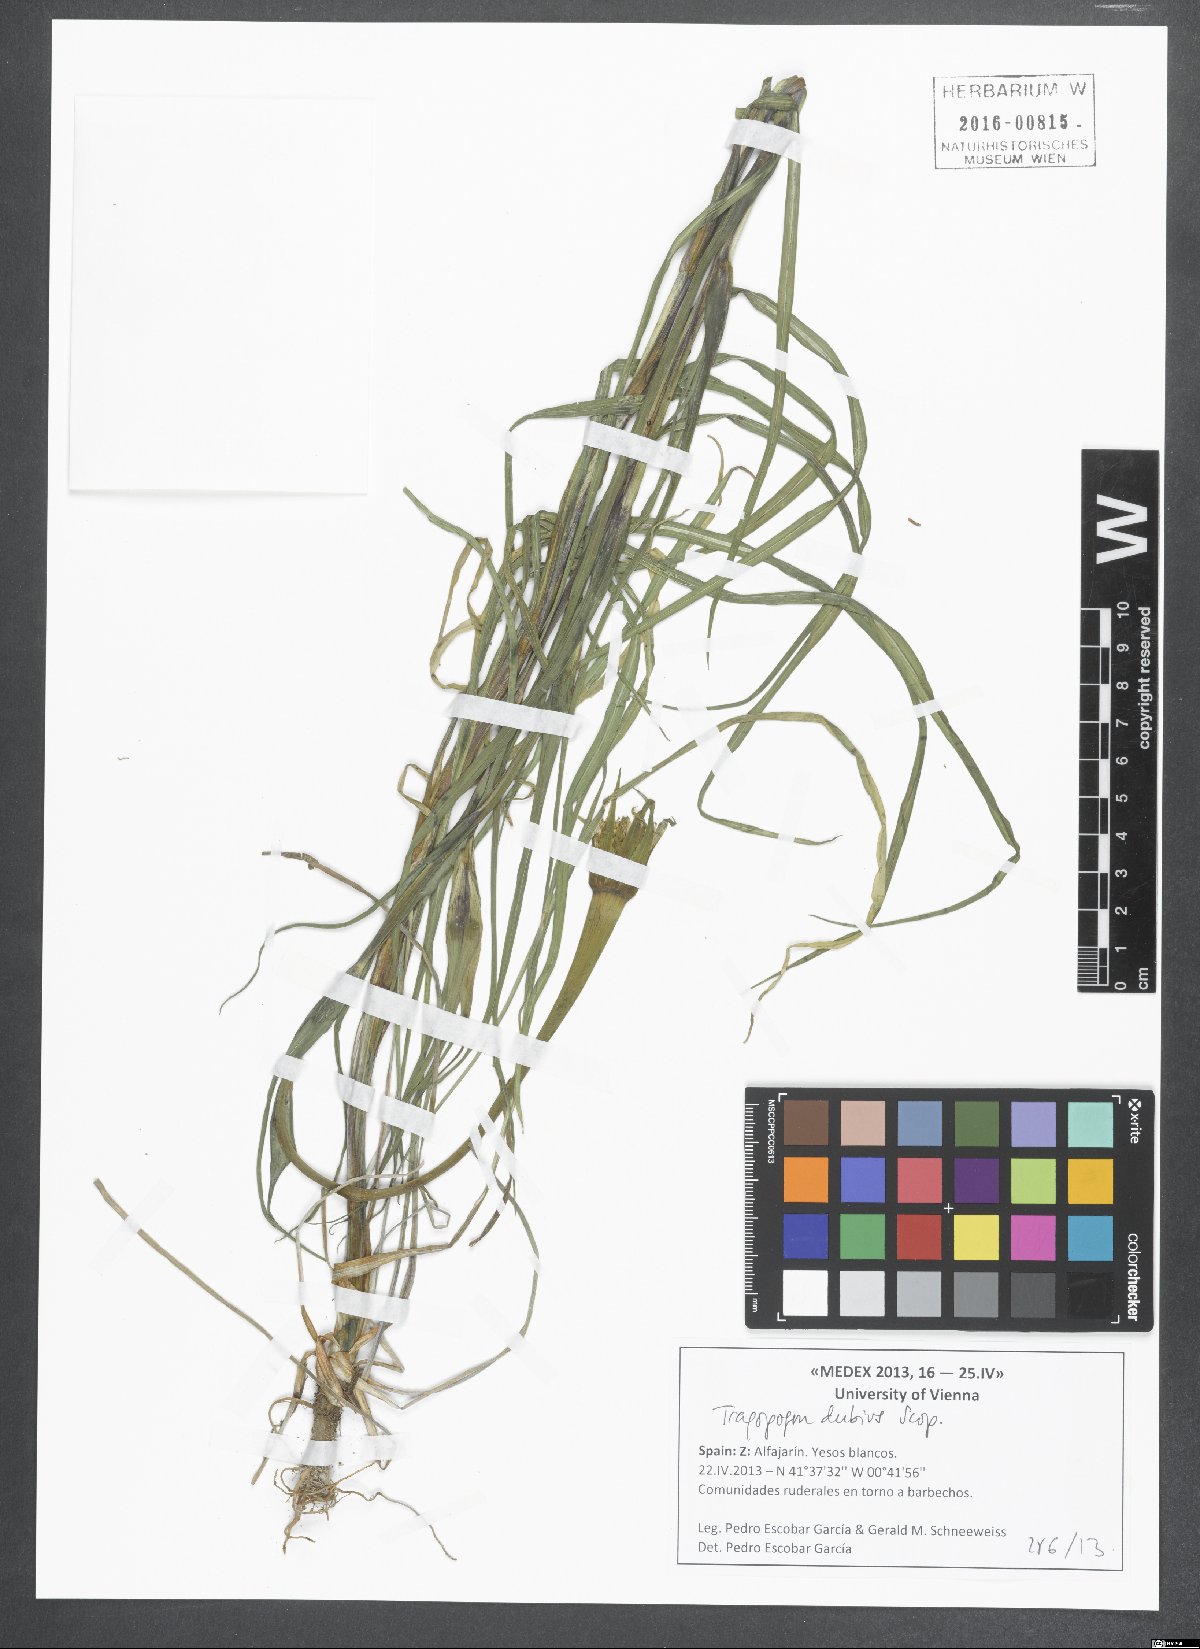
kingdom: Plantae
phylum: Tracheophyta
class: Magnoliopsida
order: Asterales
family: Asteraceae
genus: Tragopogon
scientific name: Tragopogon dubius
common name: Yellow salsify
